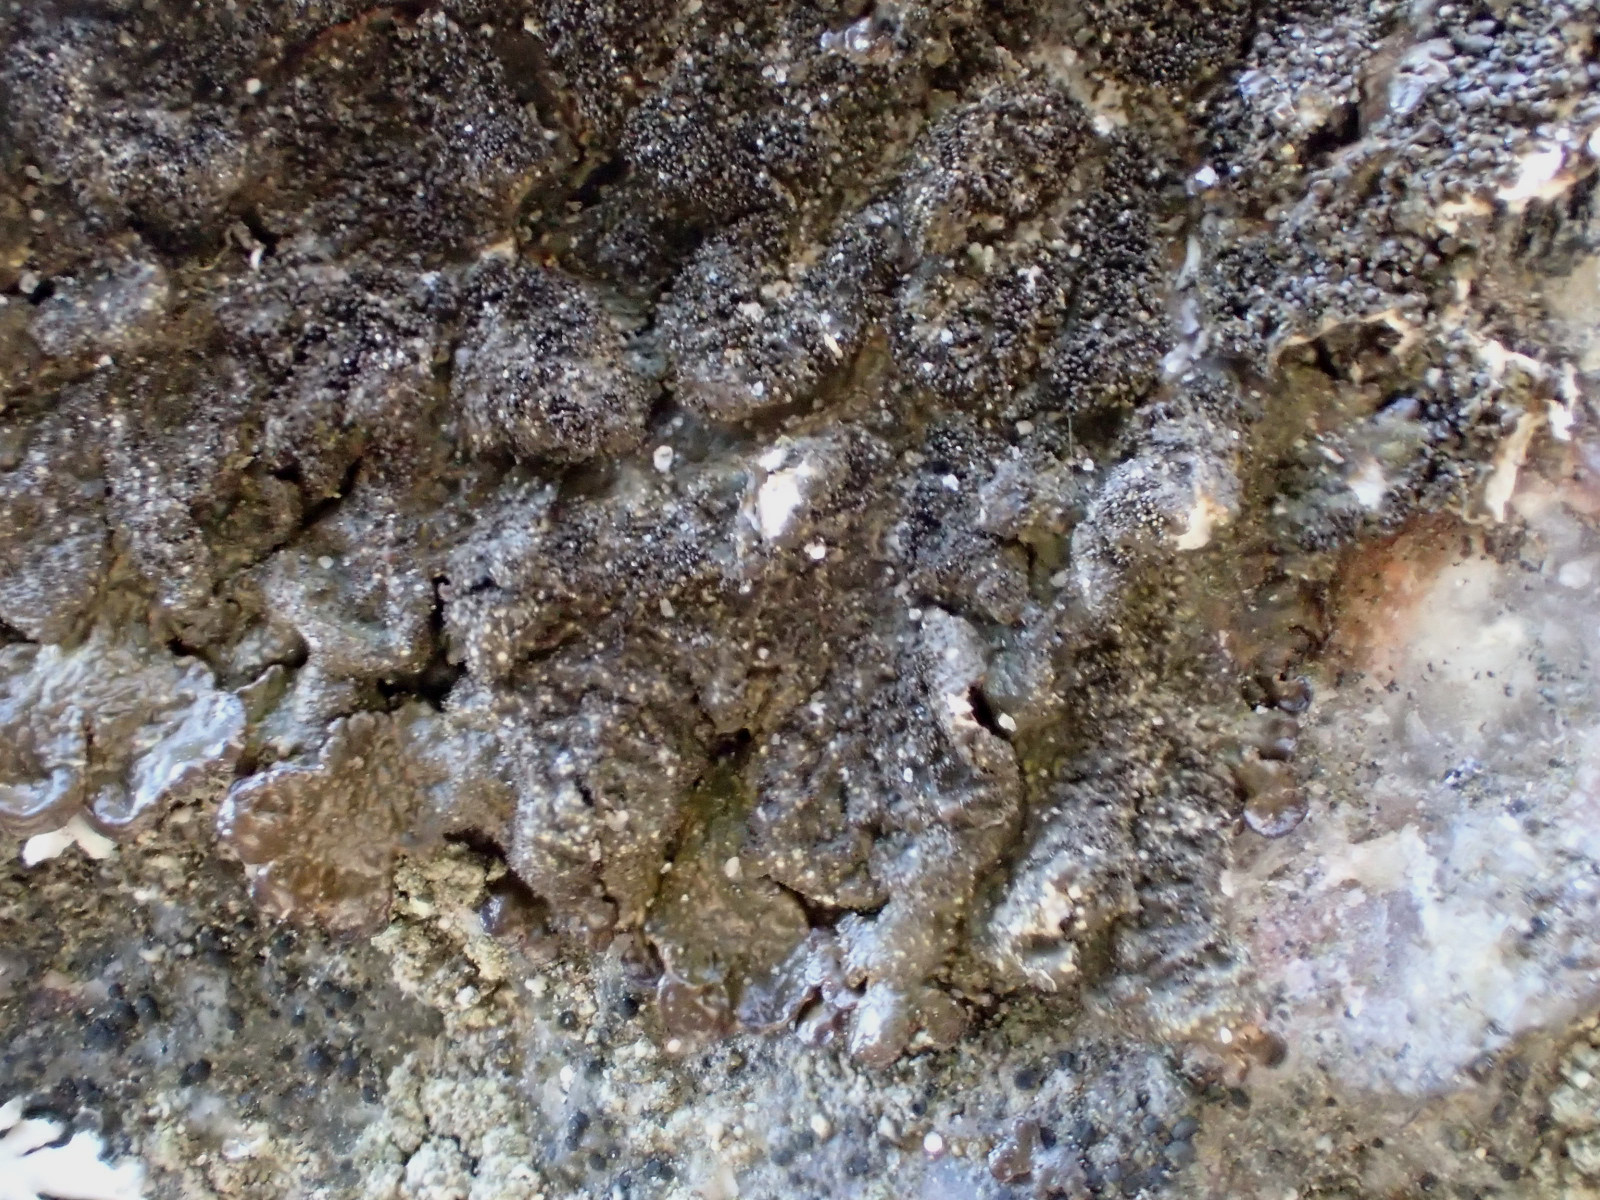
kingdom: Fungi
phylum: Ascomycota
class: Lecanoromycetes
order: Lecanorales
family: Parmeliaceae
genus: Melanelixia
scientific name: Melanelixia fuliginosa
